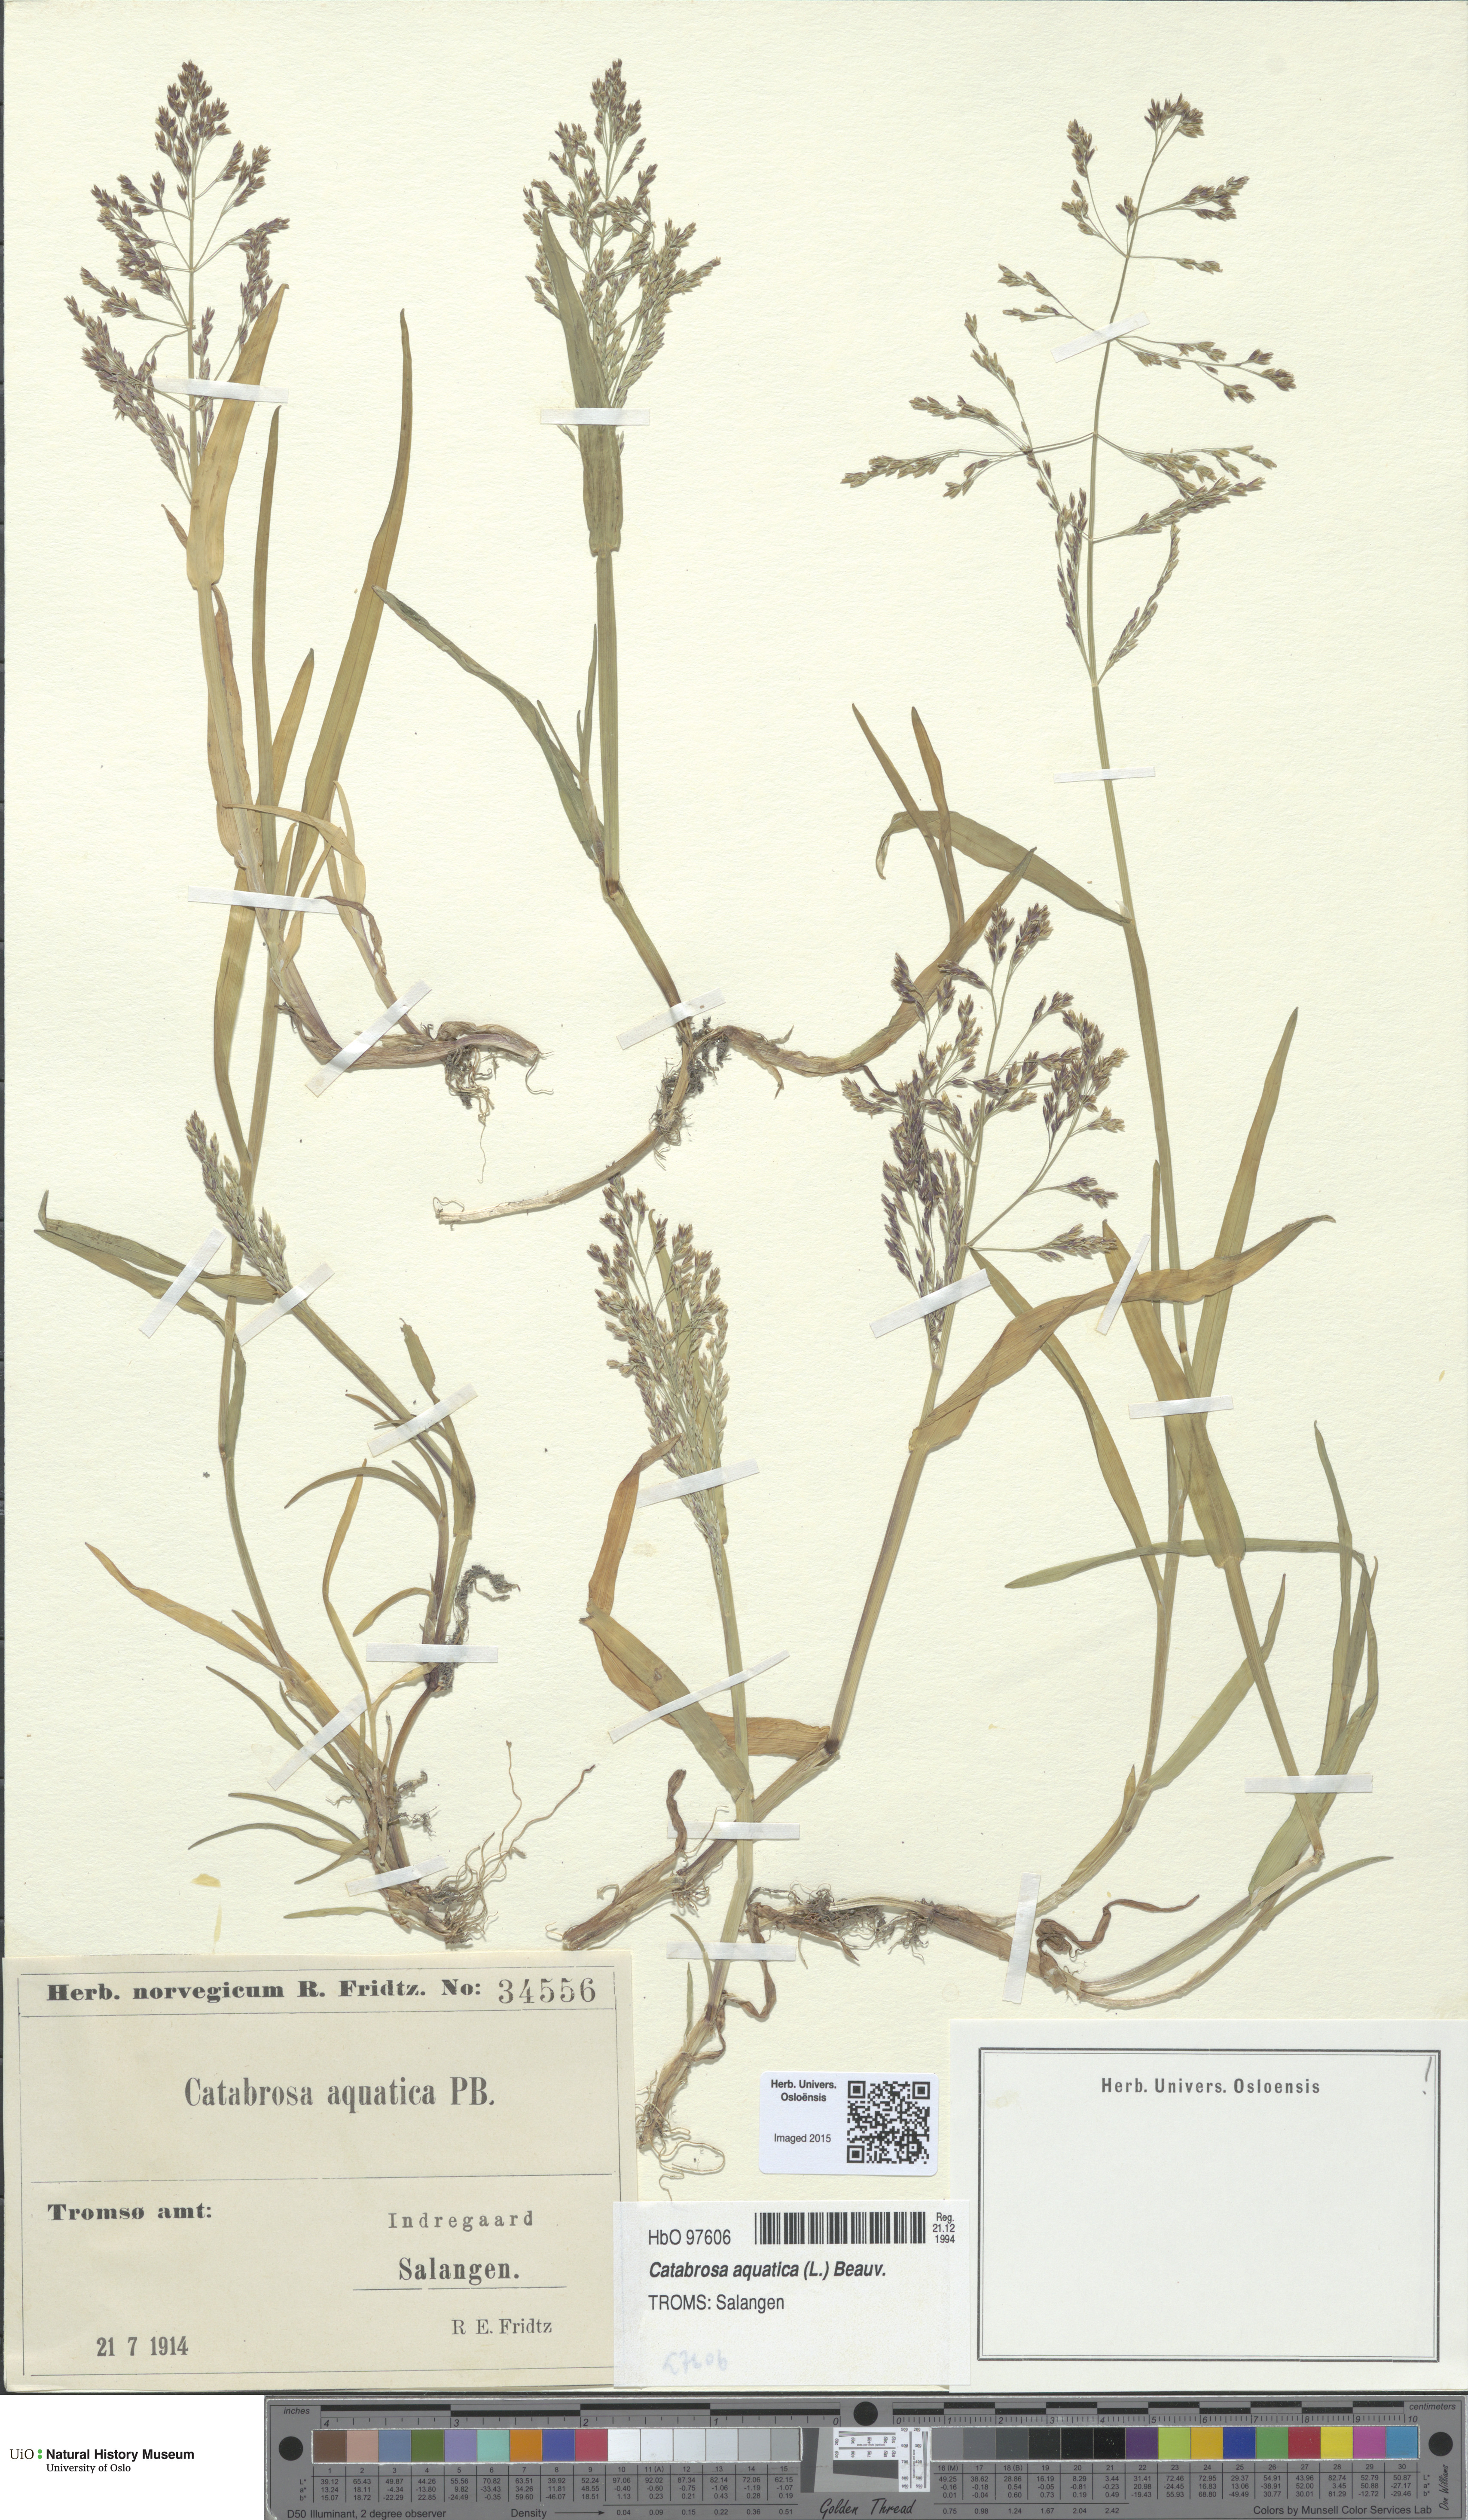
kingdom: Plantae
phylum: Tracheophyta
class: Liliopsida
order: Poales
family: Poaceae
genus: Catabrosa
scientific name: Catabrosa aquatica
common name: Whorl-grass
